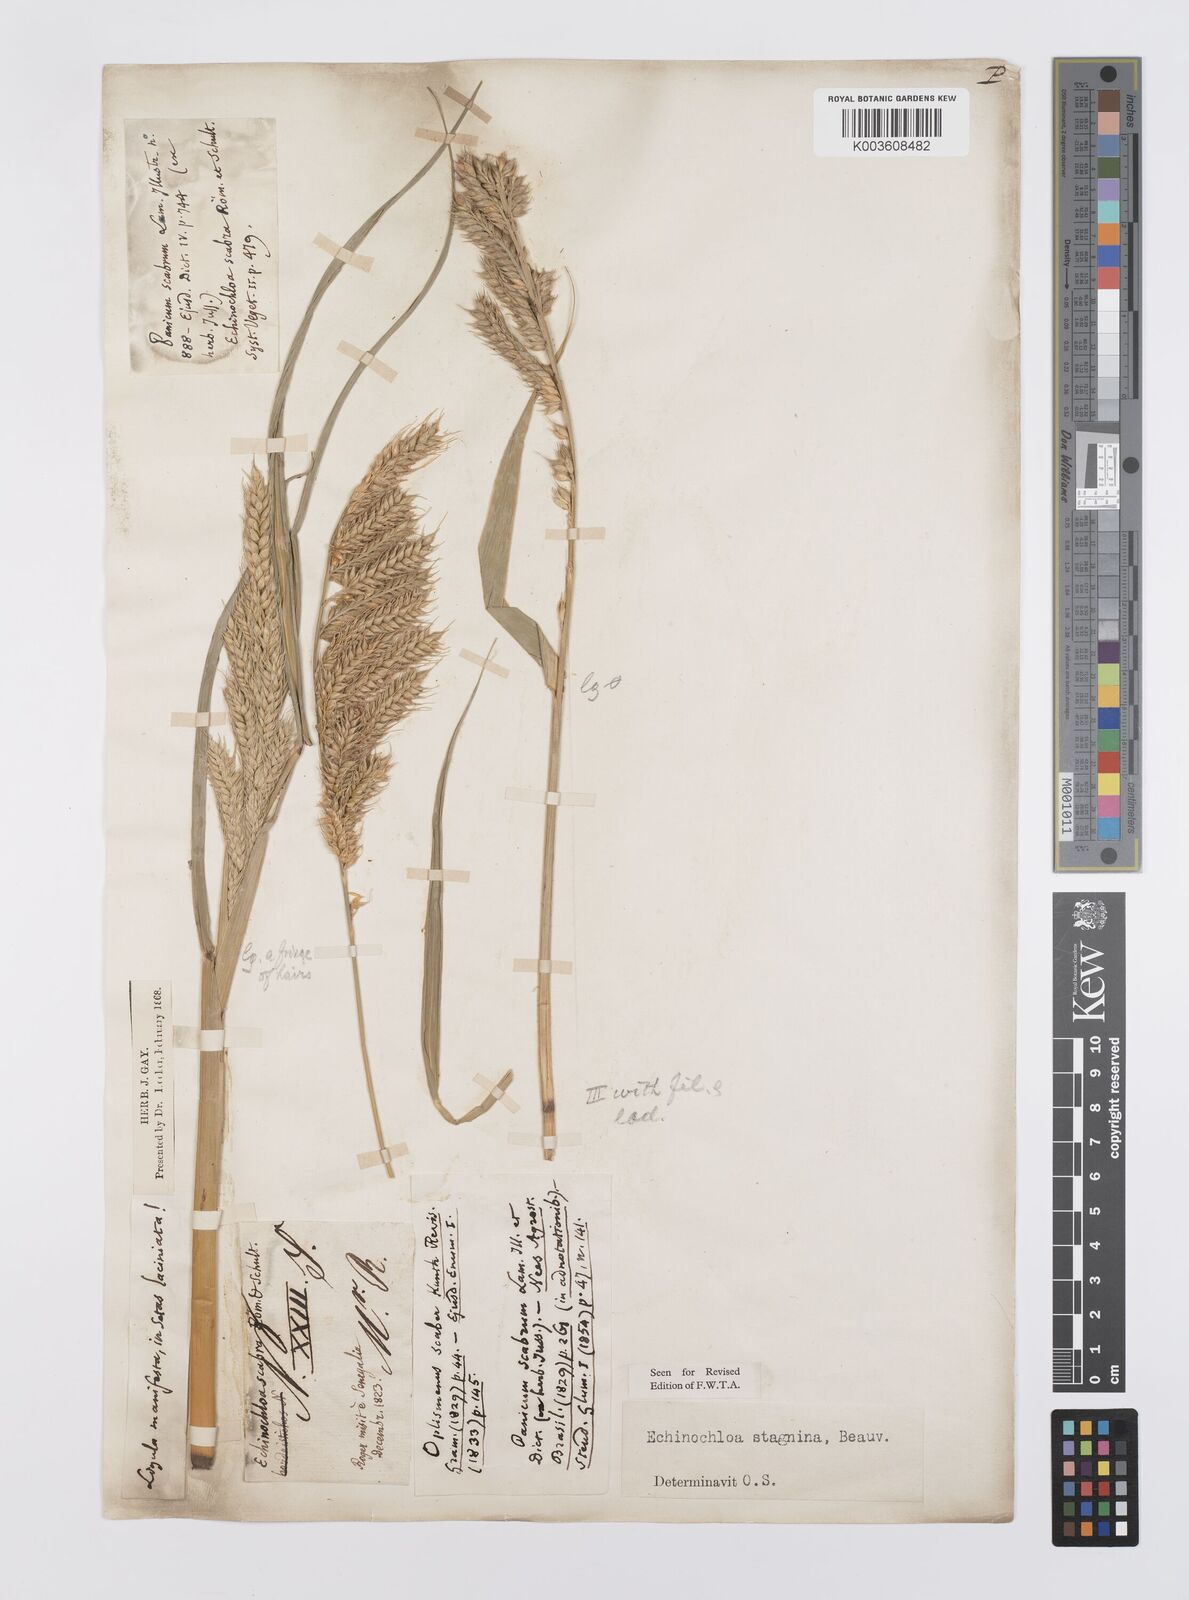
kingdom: Plantae
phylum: Tracheophyta
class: Liliopsida
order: Poales
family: Poaceae
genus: Echinochloa
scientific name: Echinochloa stagnina
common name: Burgu grass
